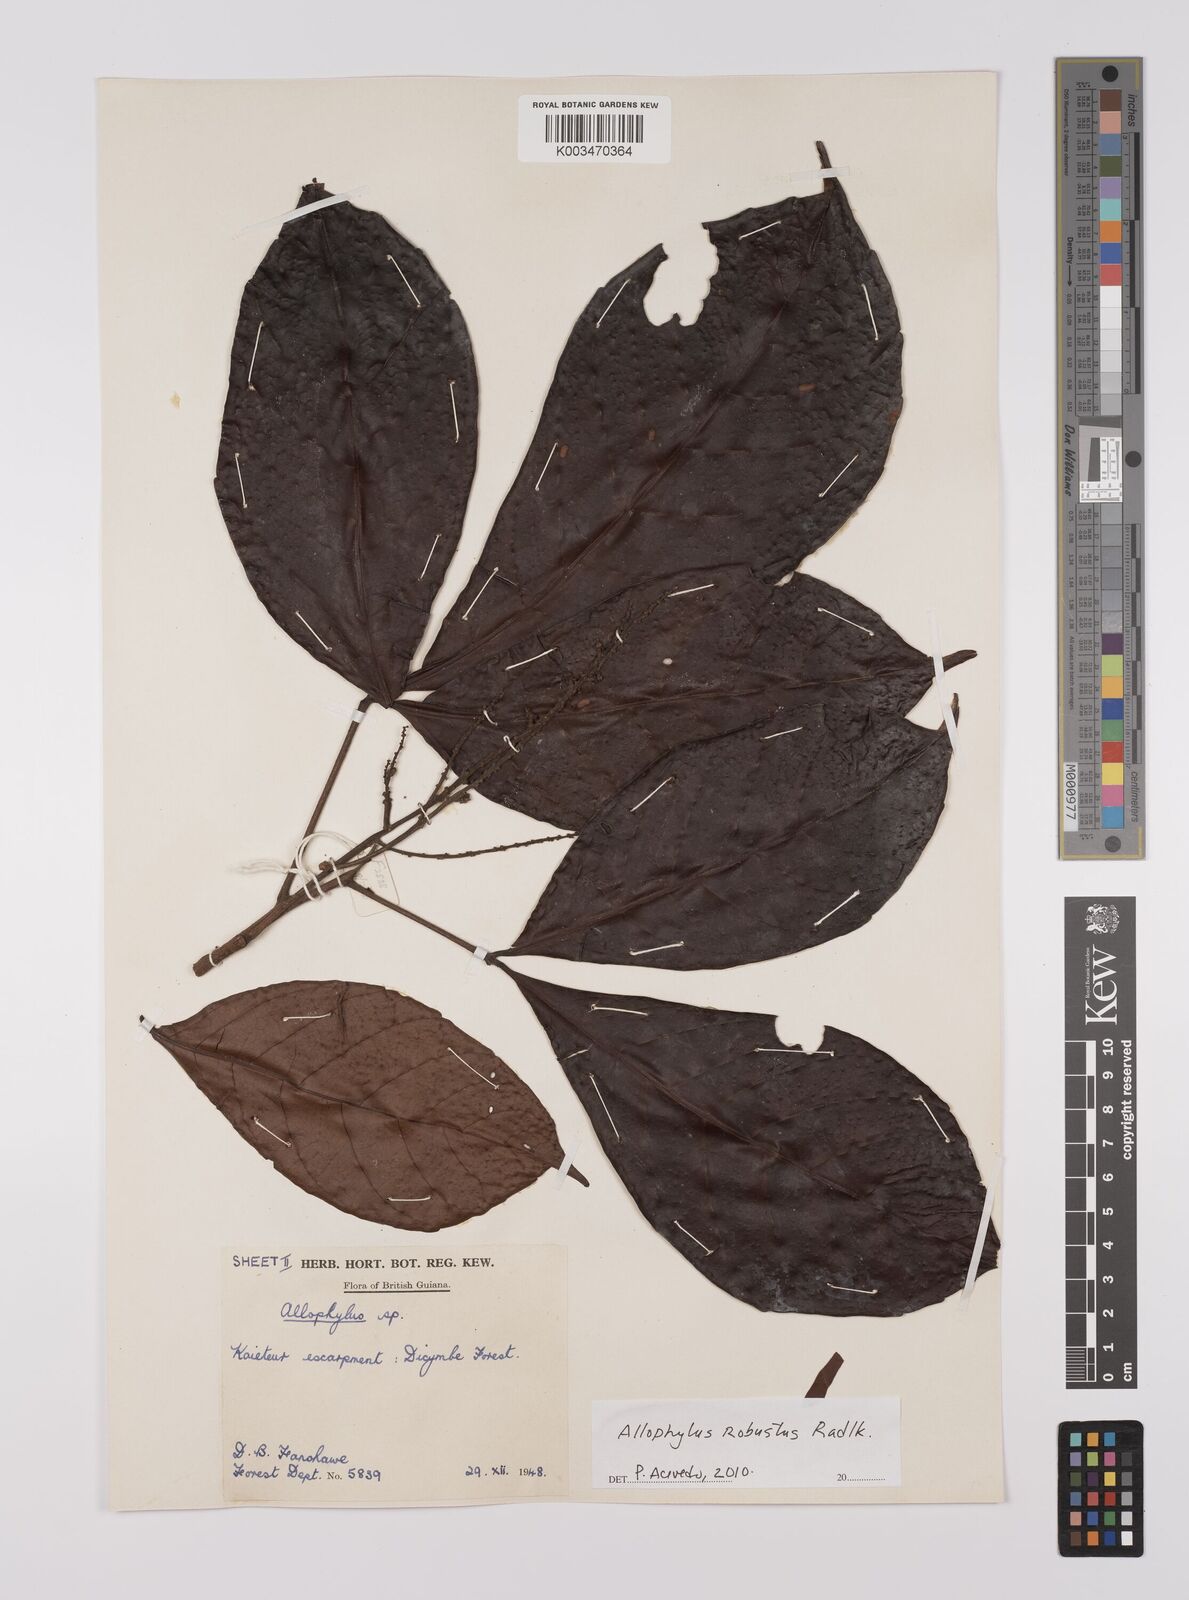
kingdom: Plantae
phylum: Tracheophyta
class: Magnoliopsida
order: Sapindales
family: Sapindaceae
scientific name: Sapindaceae
